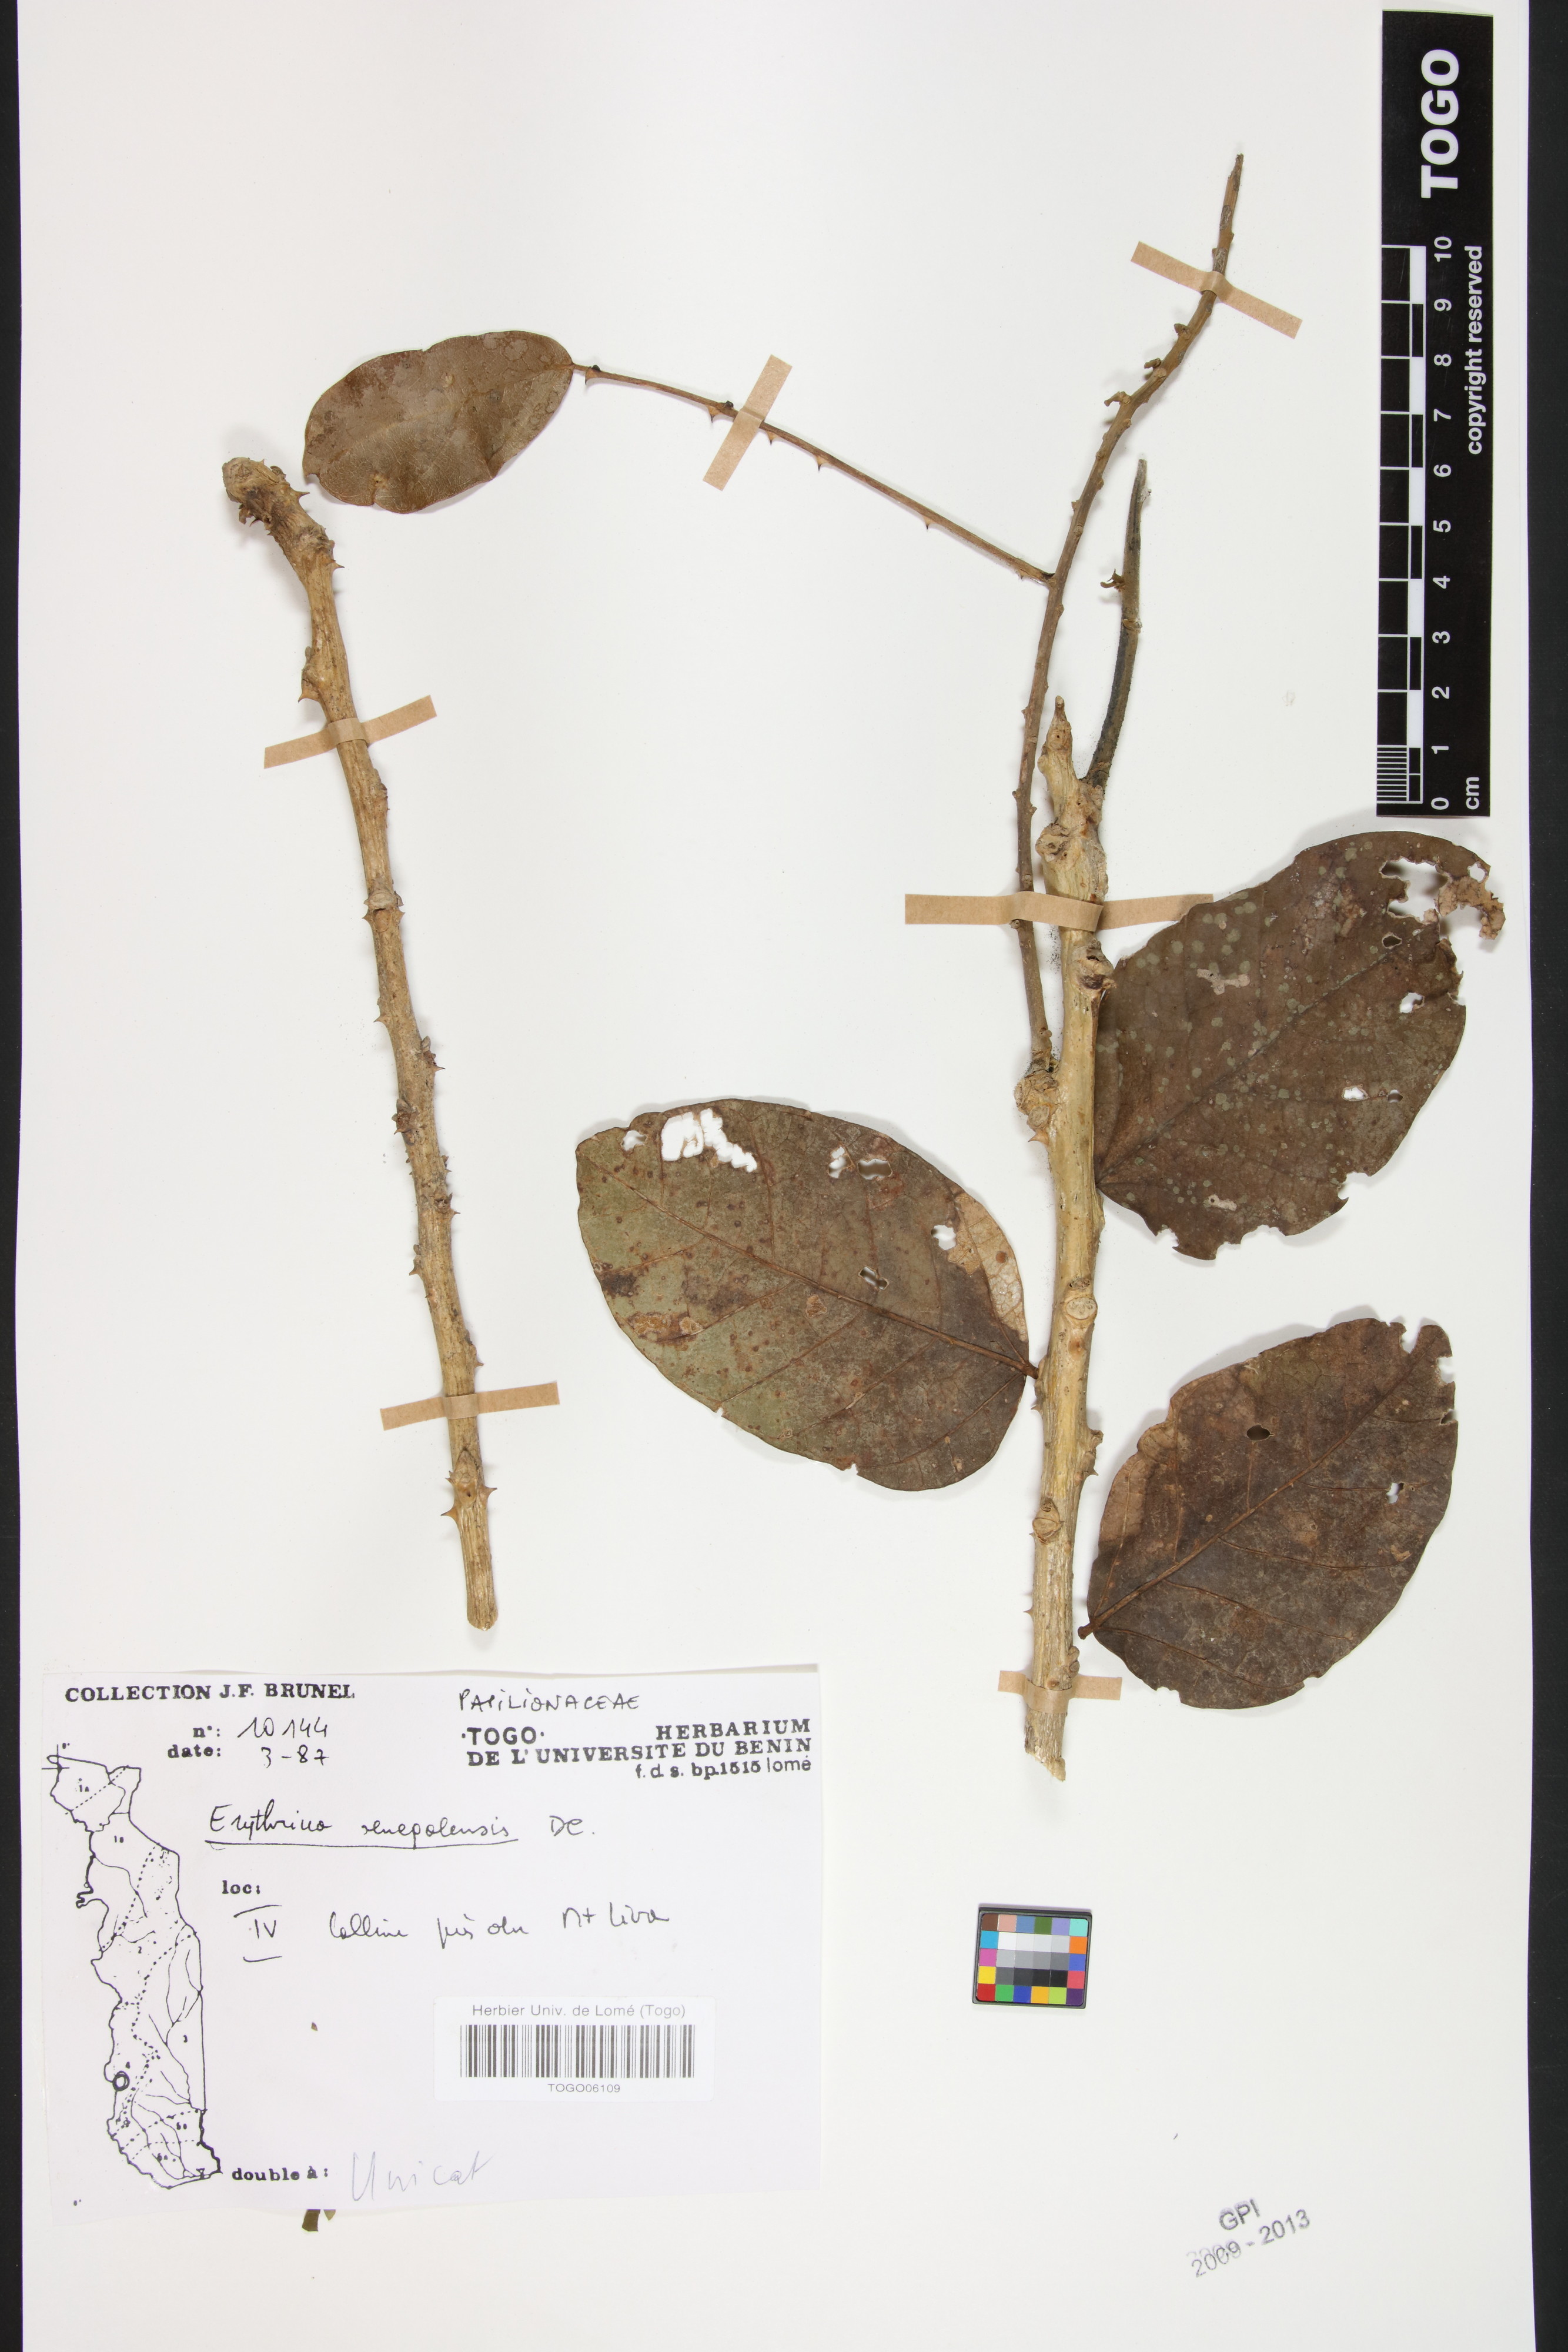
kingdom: Plantae
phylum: Tracheophyta
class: Magnoliopsida
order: Fabales
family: Fabaceae
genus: Erythrina
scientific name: Erythrina senegalensis
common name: Senegal coraltree
